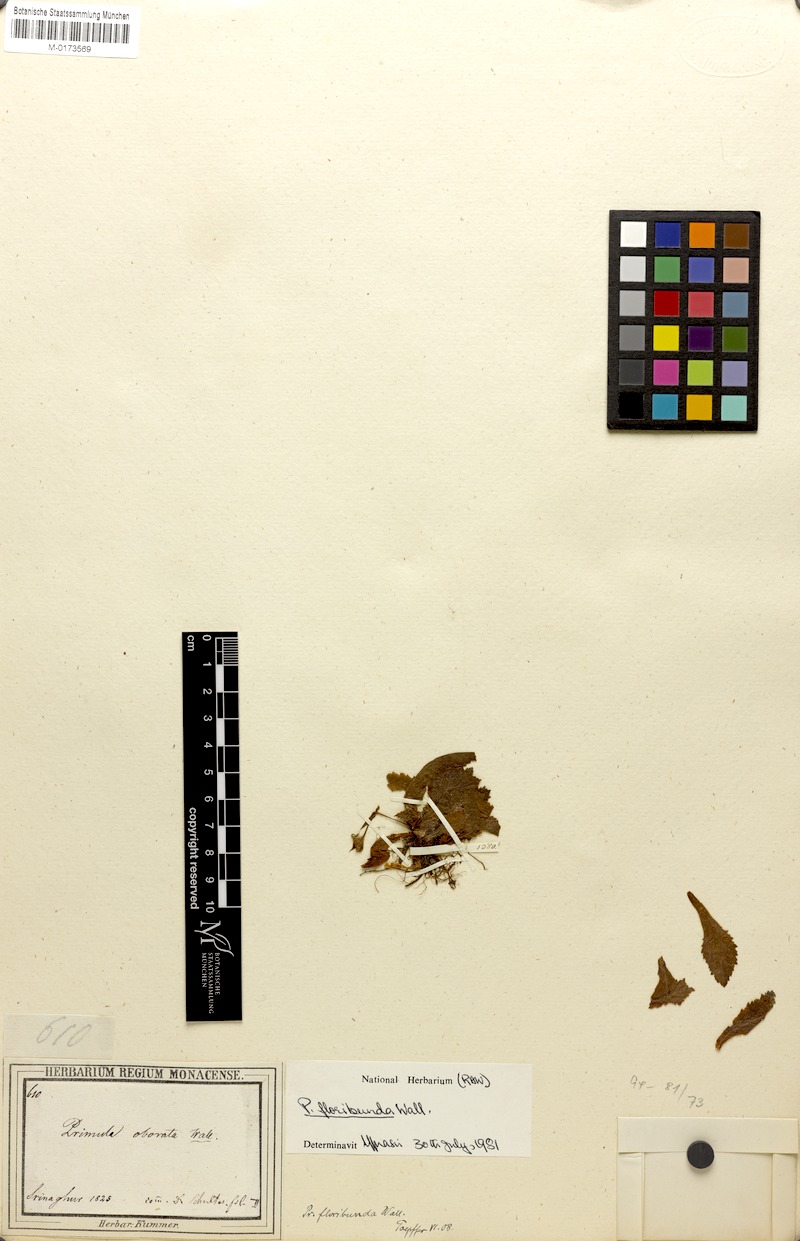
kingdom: Plantae
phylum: Tracheophyta
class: Magnoliopsida
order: Ericales
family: Primulaceae
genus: Evotrochis
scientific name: Evotrochis floribunda
